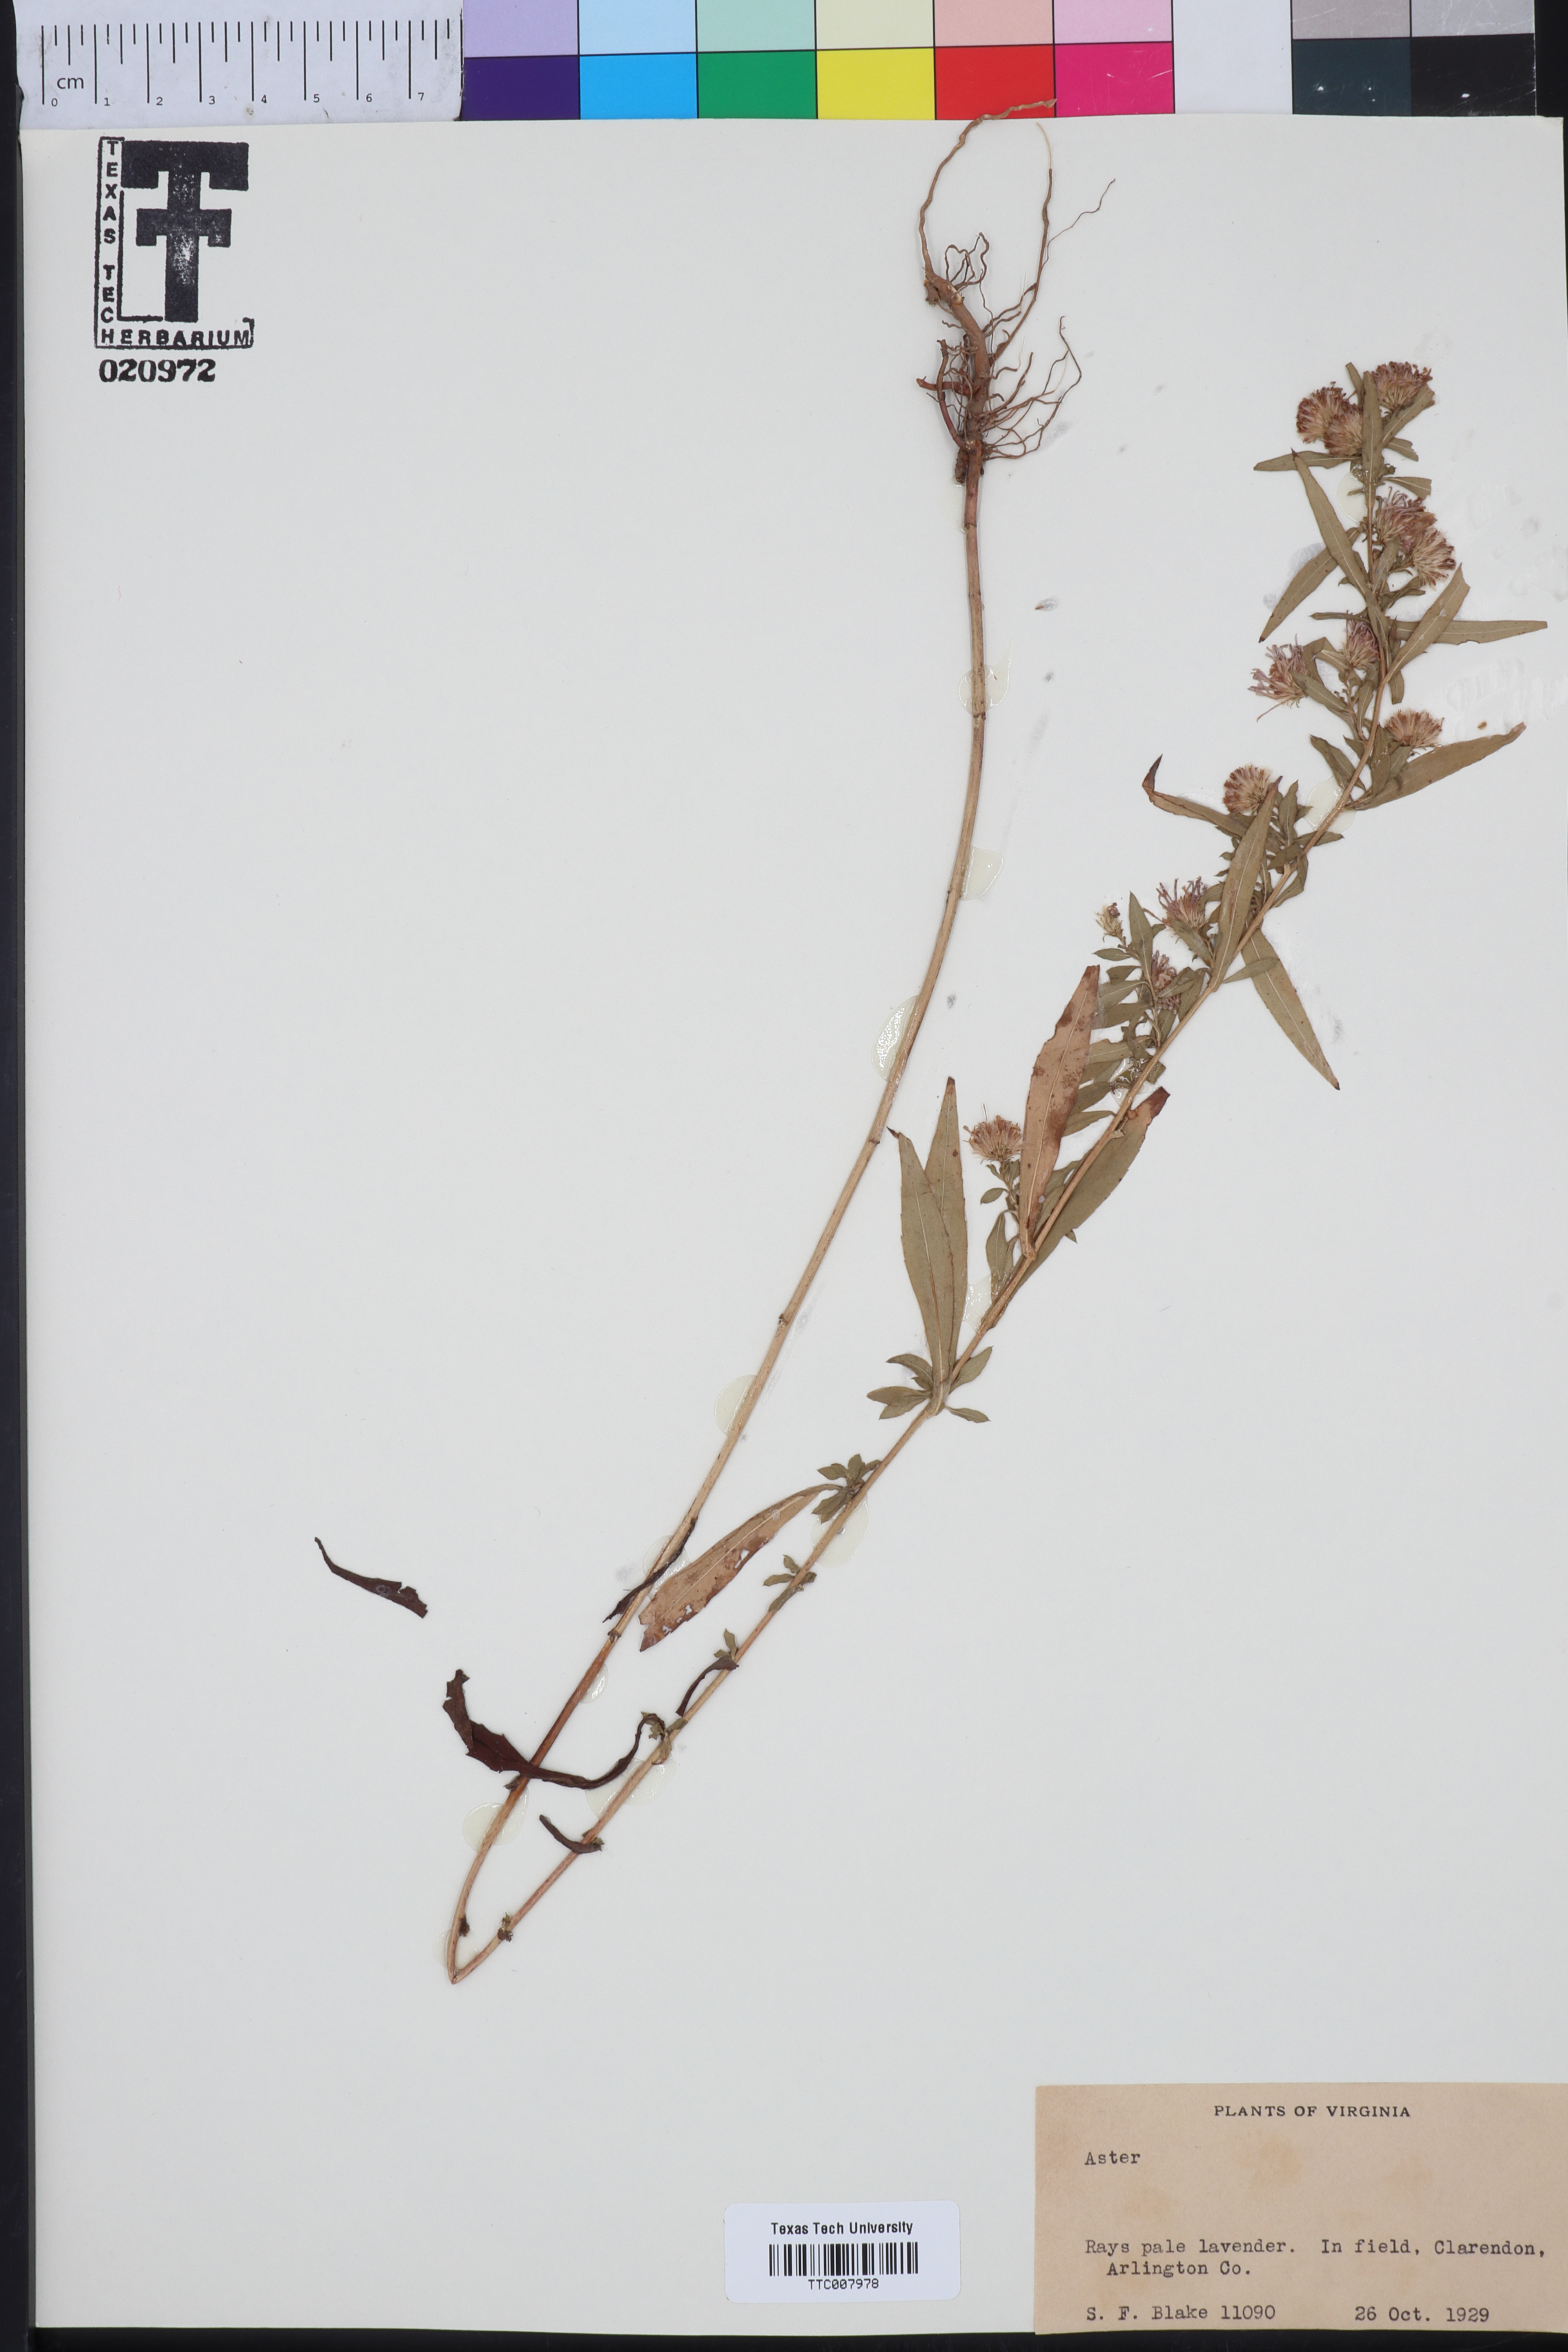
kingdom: Plantae
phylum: Tracheophyta
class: Magnoliopsida
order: Asterales
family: Asteraceae
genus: Aster
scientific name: Aster
